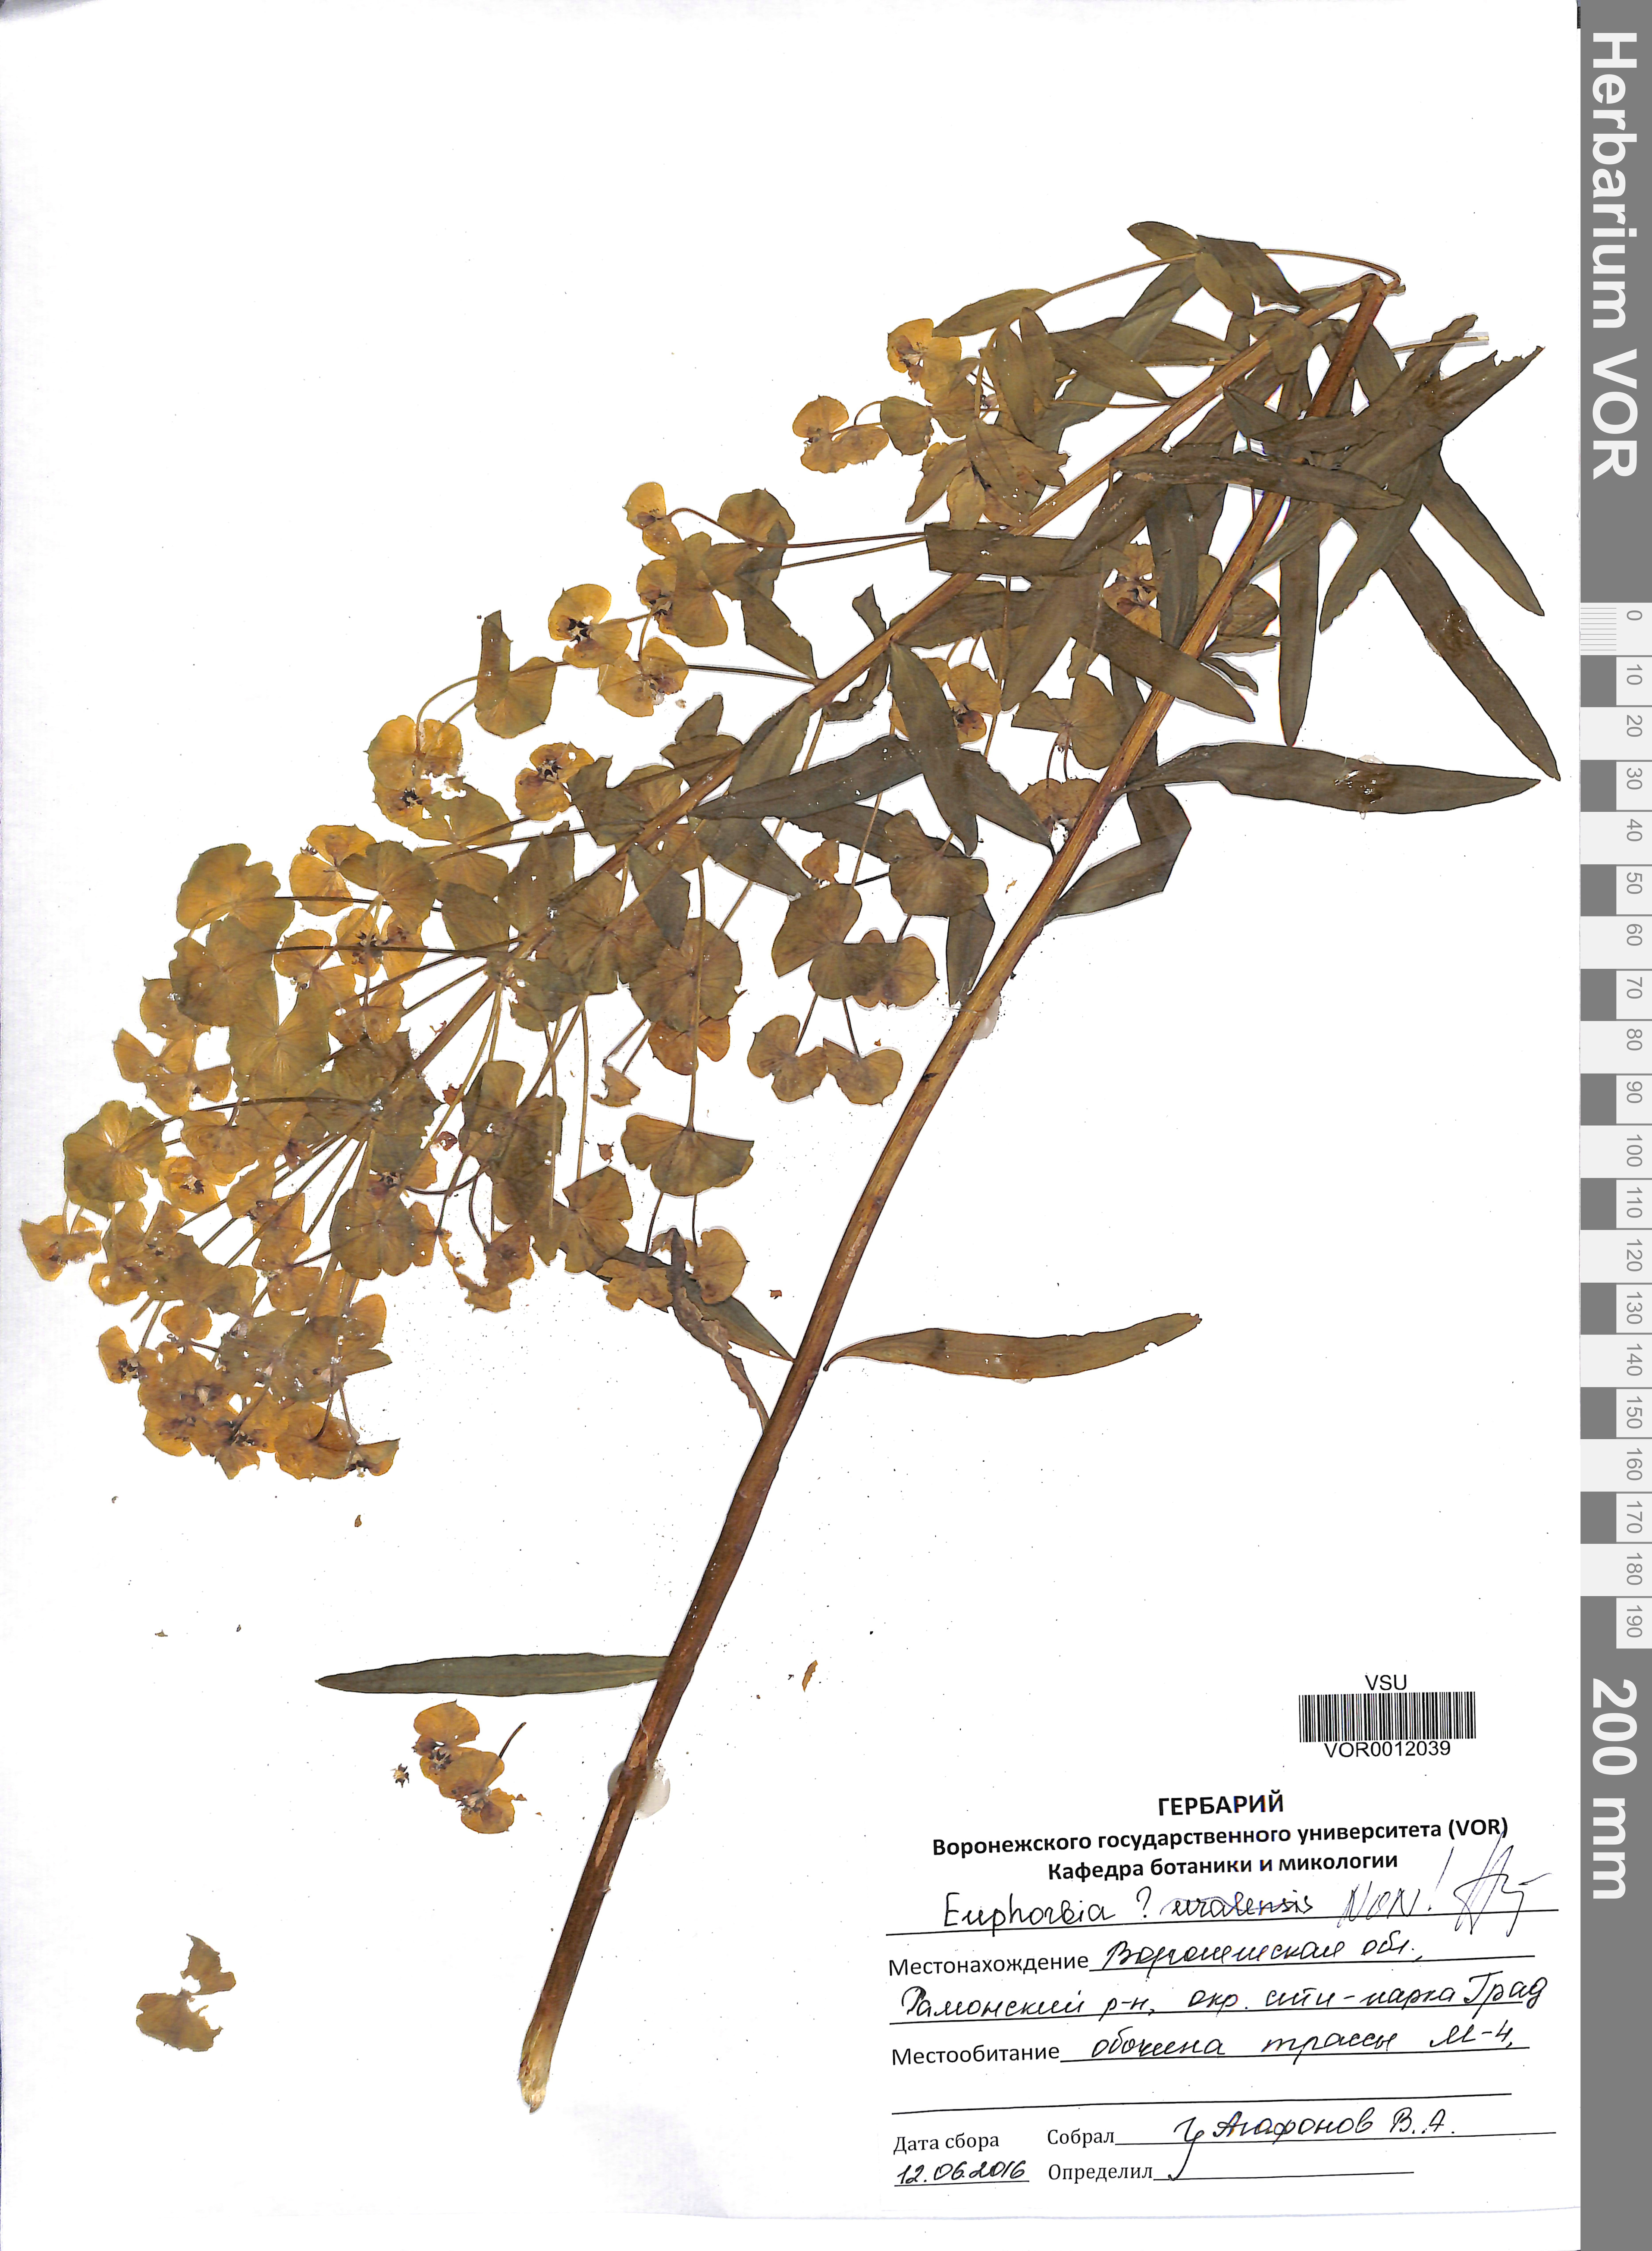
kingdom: Plantae
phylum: Tracheophyta
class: Magnoliopsida
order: Malpighiales
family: Euphorbiaceae
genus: Euphorbia
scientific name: Euphorbia uralensis
